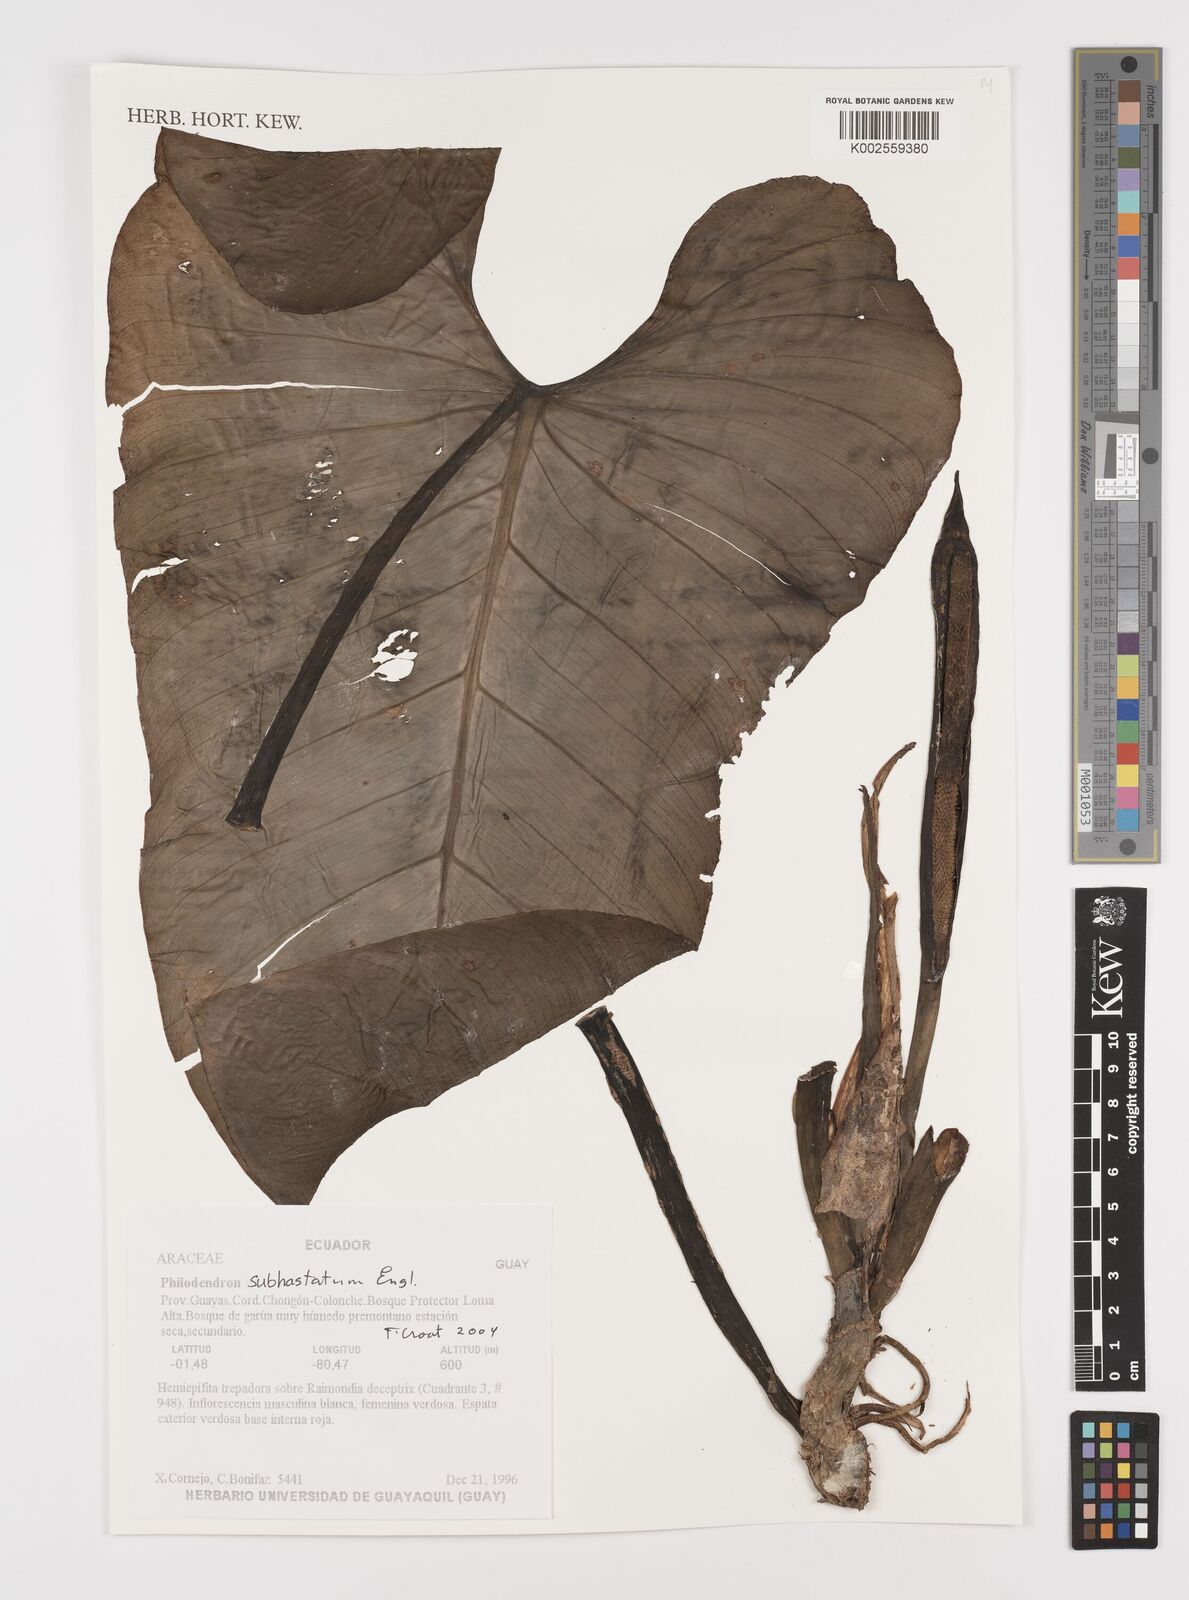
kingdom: Plantae
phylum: Tracheophyta
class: Liliopsida
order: Alismatales
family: Araceae
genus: Philodendron
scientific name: Philodendron subhastatum
